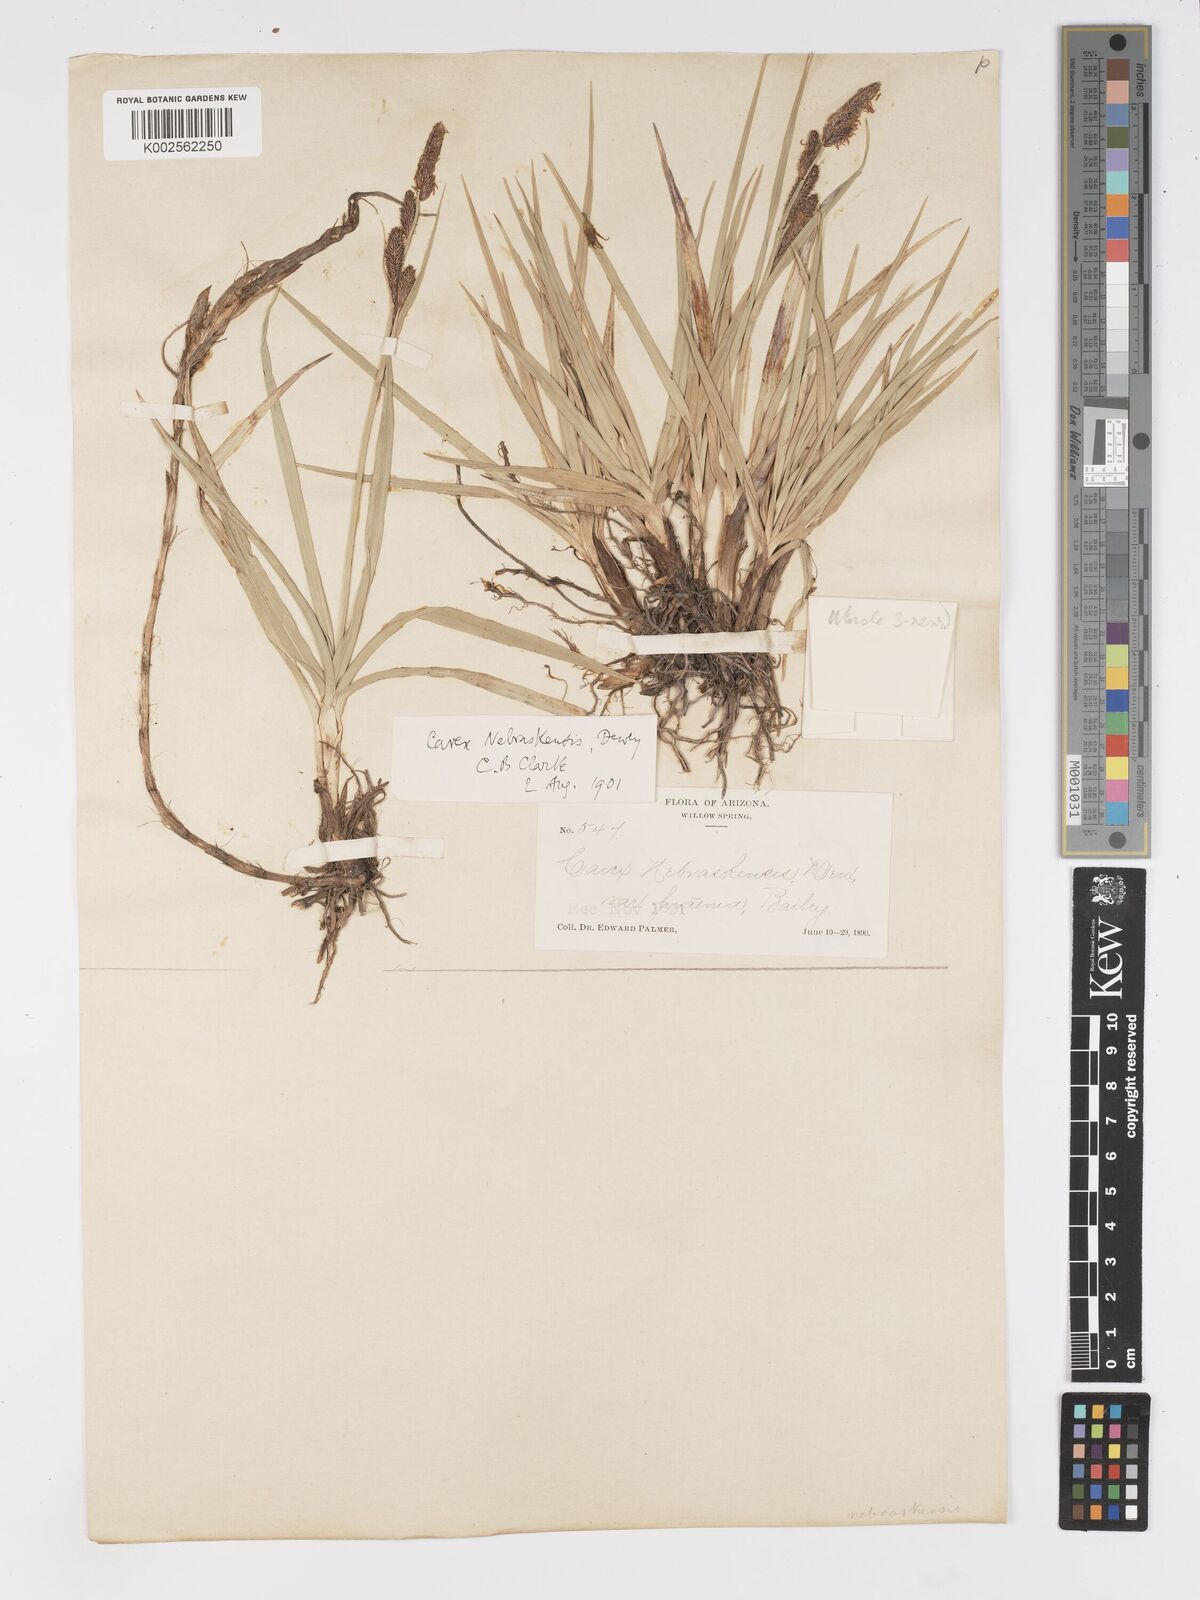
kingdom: Plantae
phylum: Tracheophyta
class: Liliopsida
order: Poales
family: Cyperaceae
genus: Carex
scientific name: Carex nebrascensis
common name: Nebraska sedge
